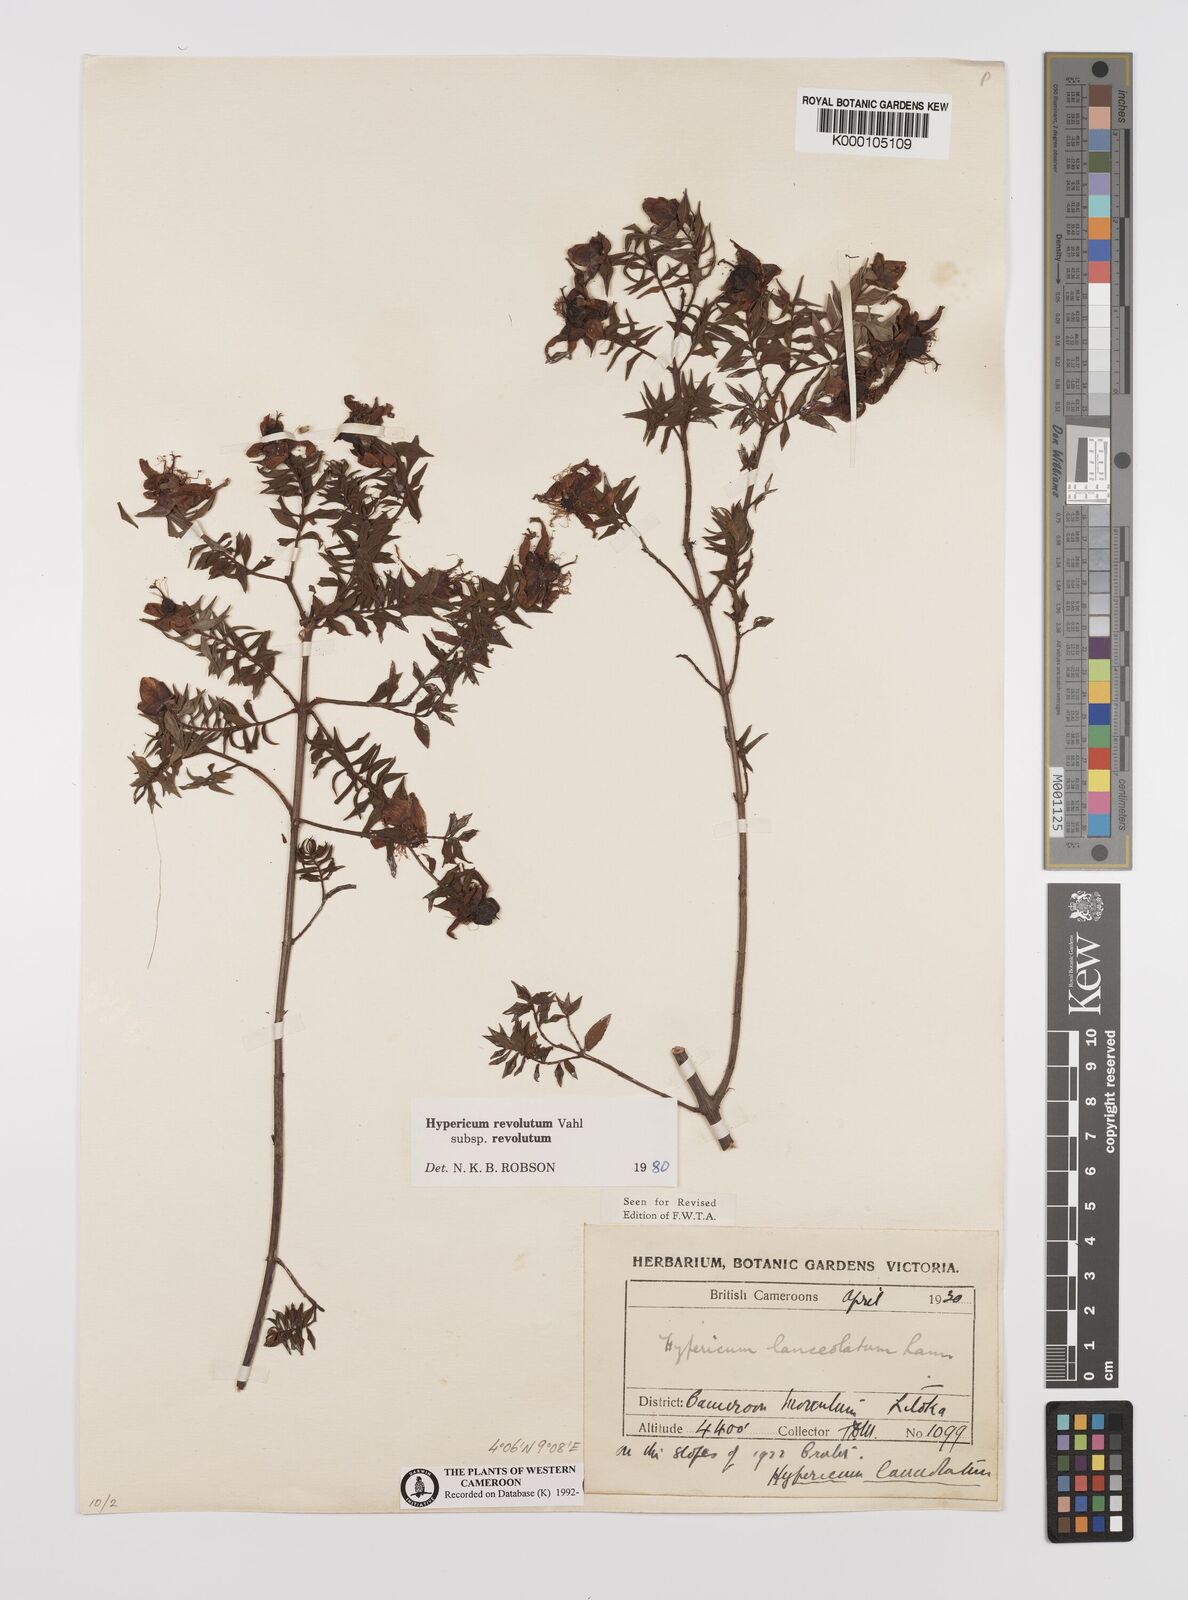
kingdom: Plantae
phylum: Tracheophyta
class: Magnoliopsida
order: Malpighiales
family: Hypericaceae
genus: Hypericum
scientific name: Hypericum revolutum
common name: Curry bush
